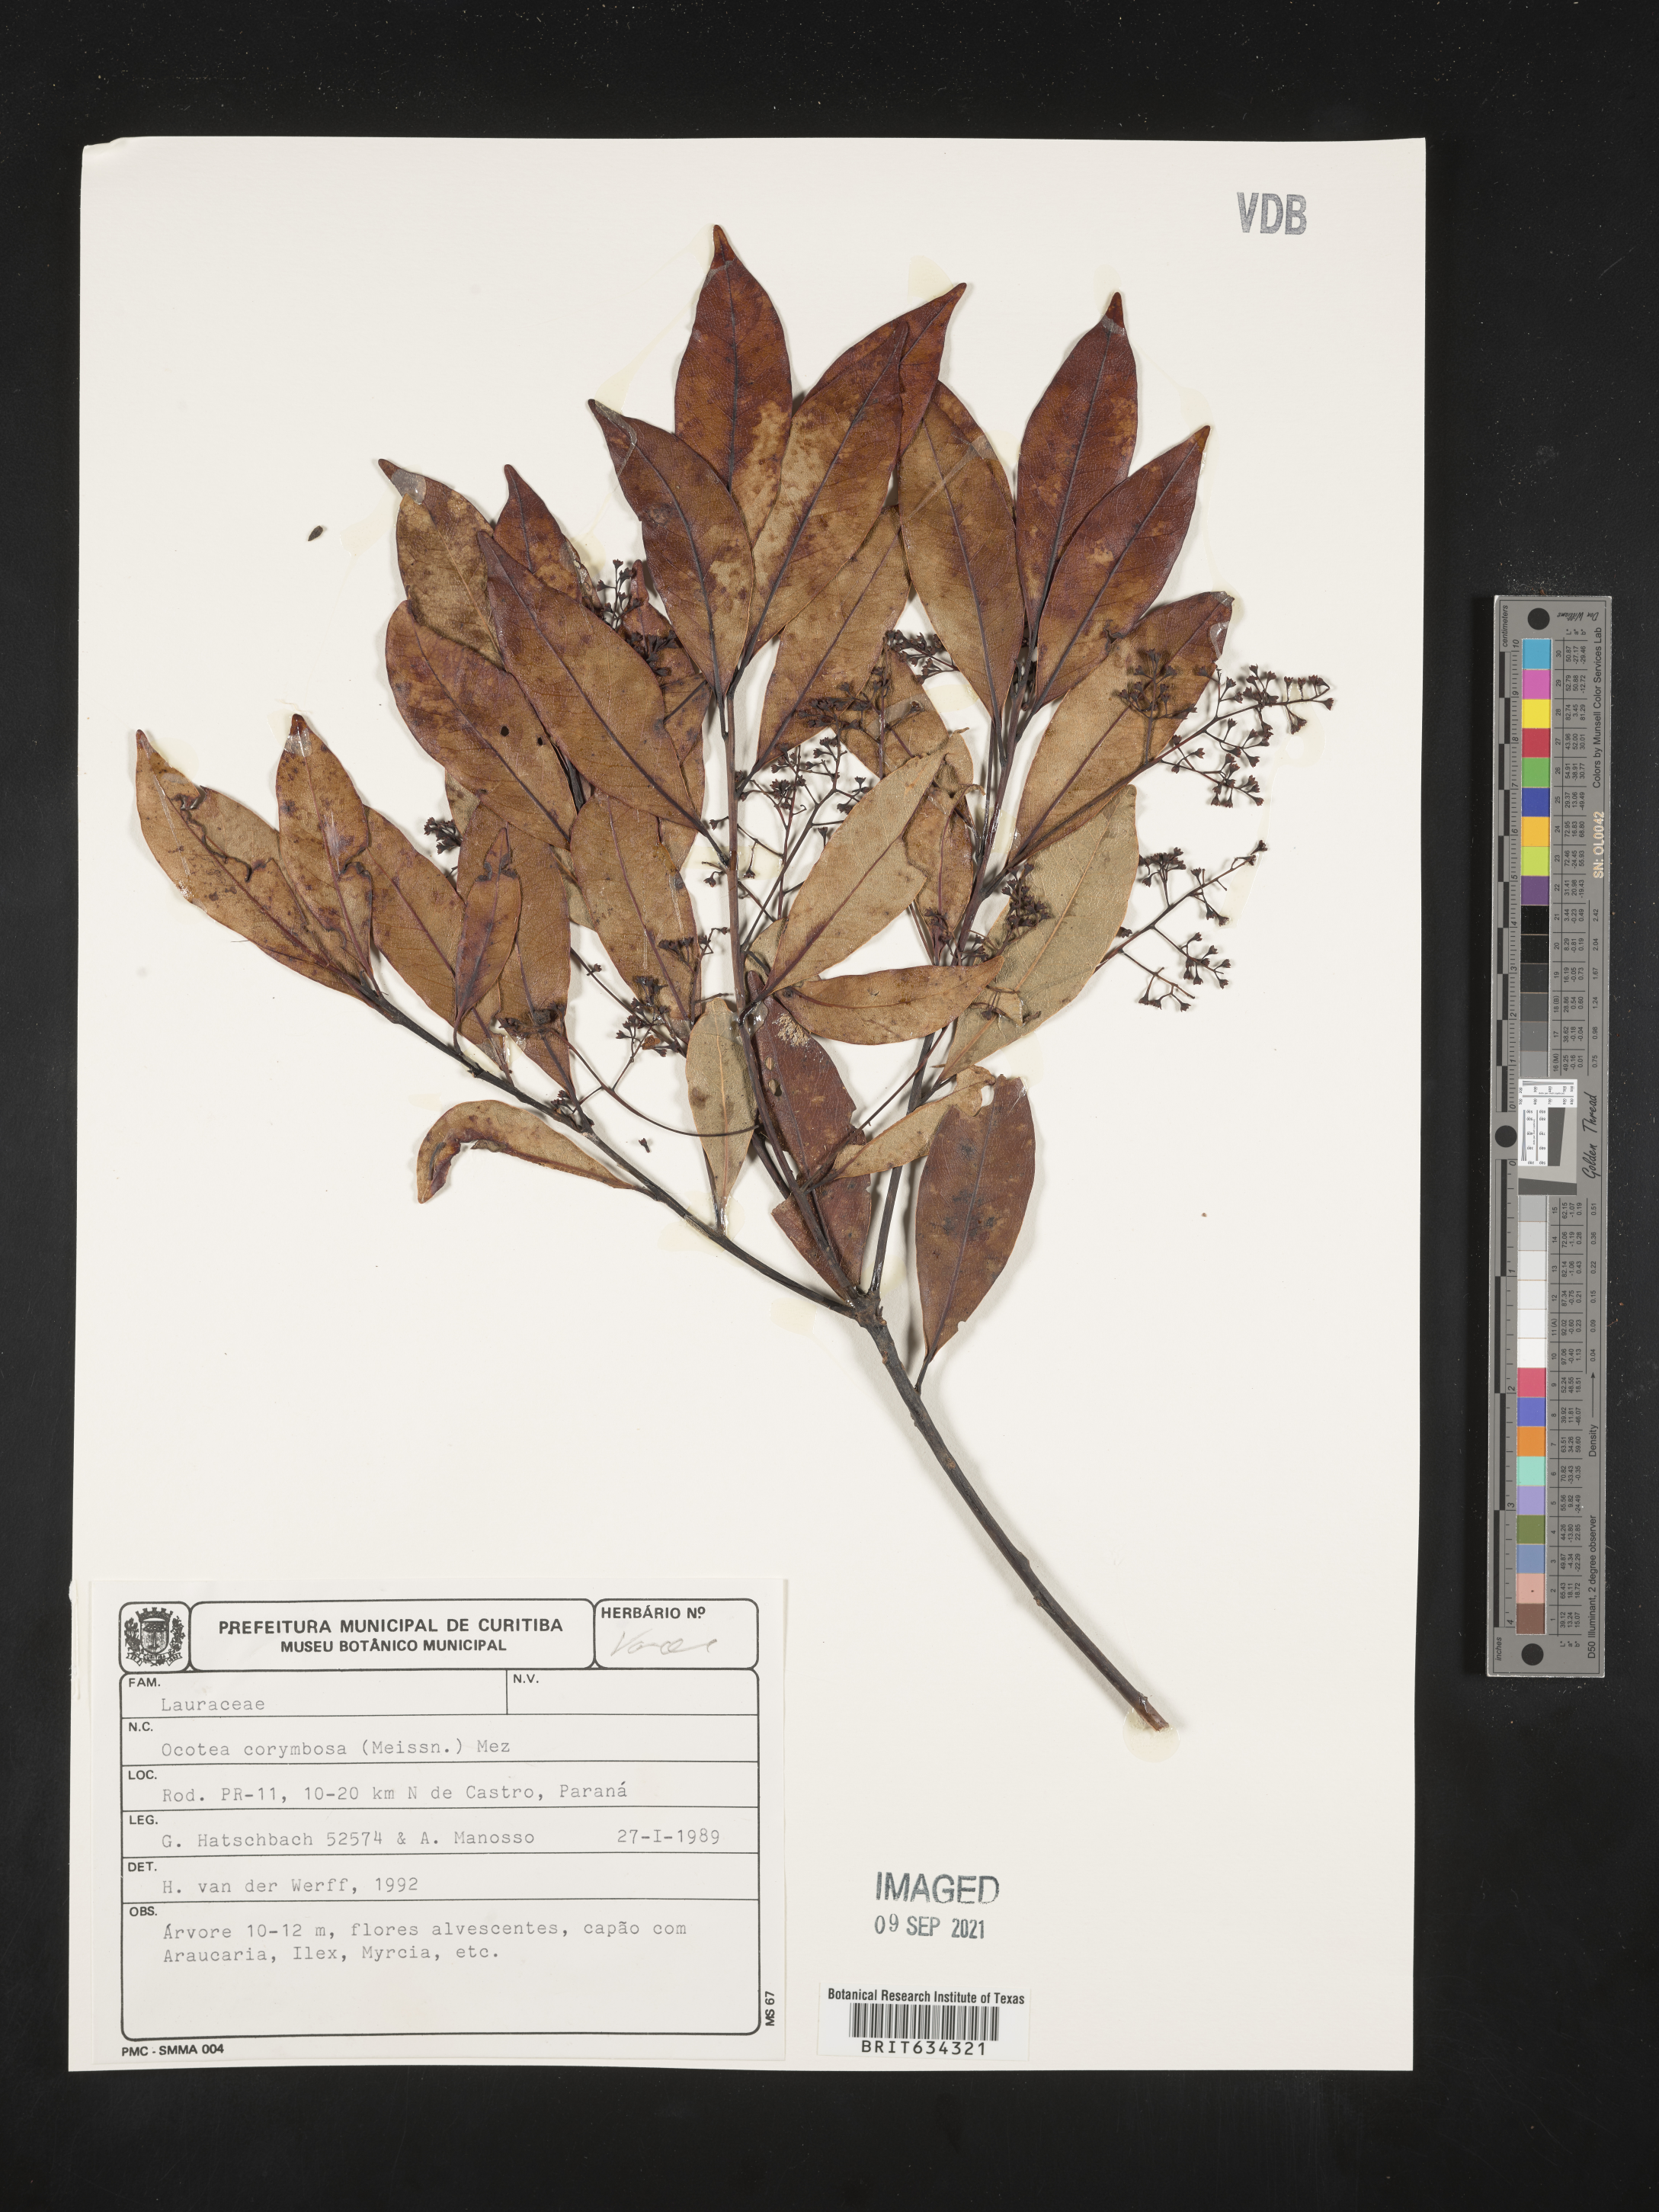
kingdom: Plantae
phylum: Tracheophyta
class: Magnoliopsida
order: Laurales
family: Lauraceae
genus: Ocotea
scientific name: Ocotea
